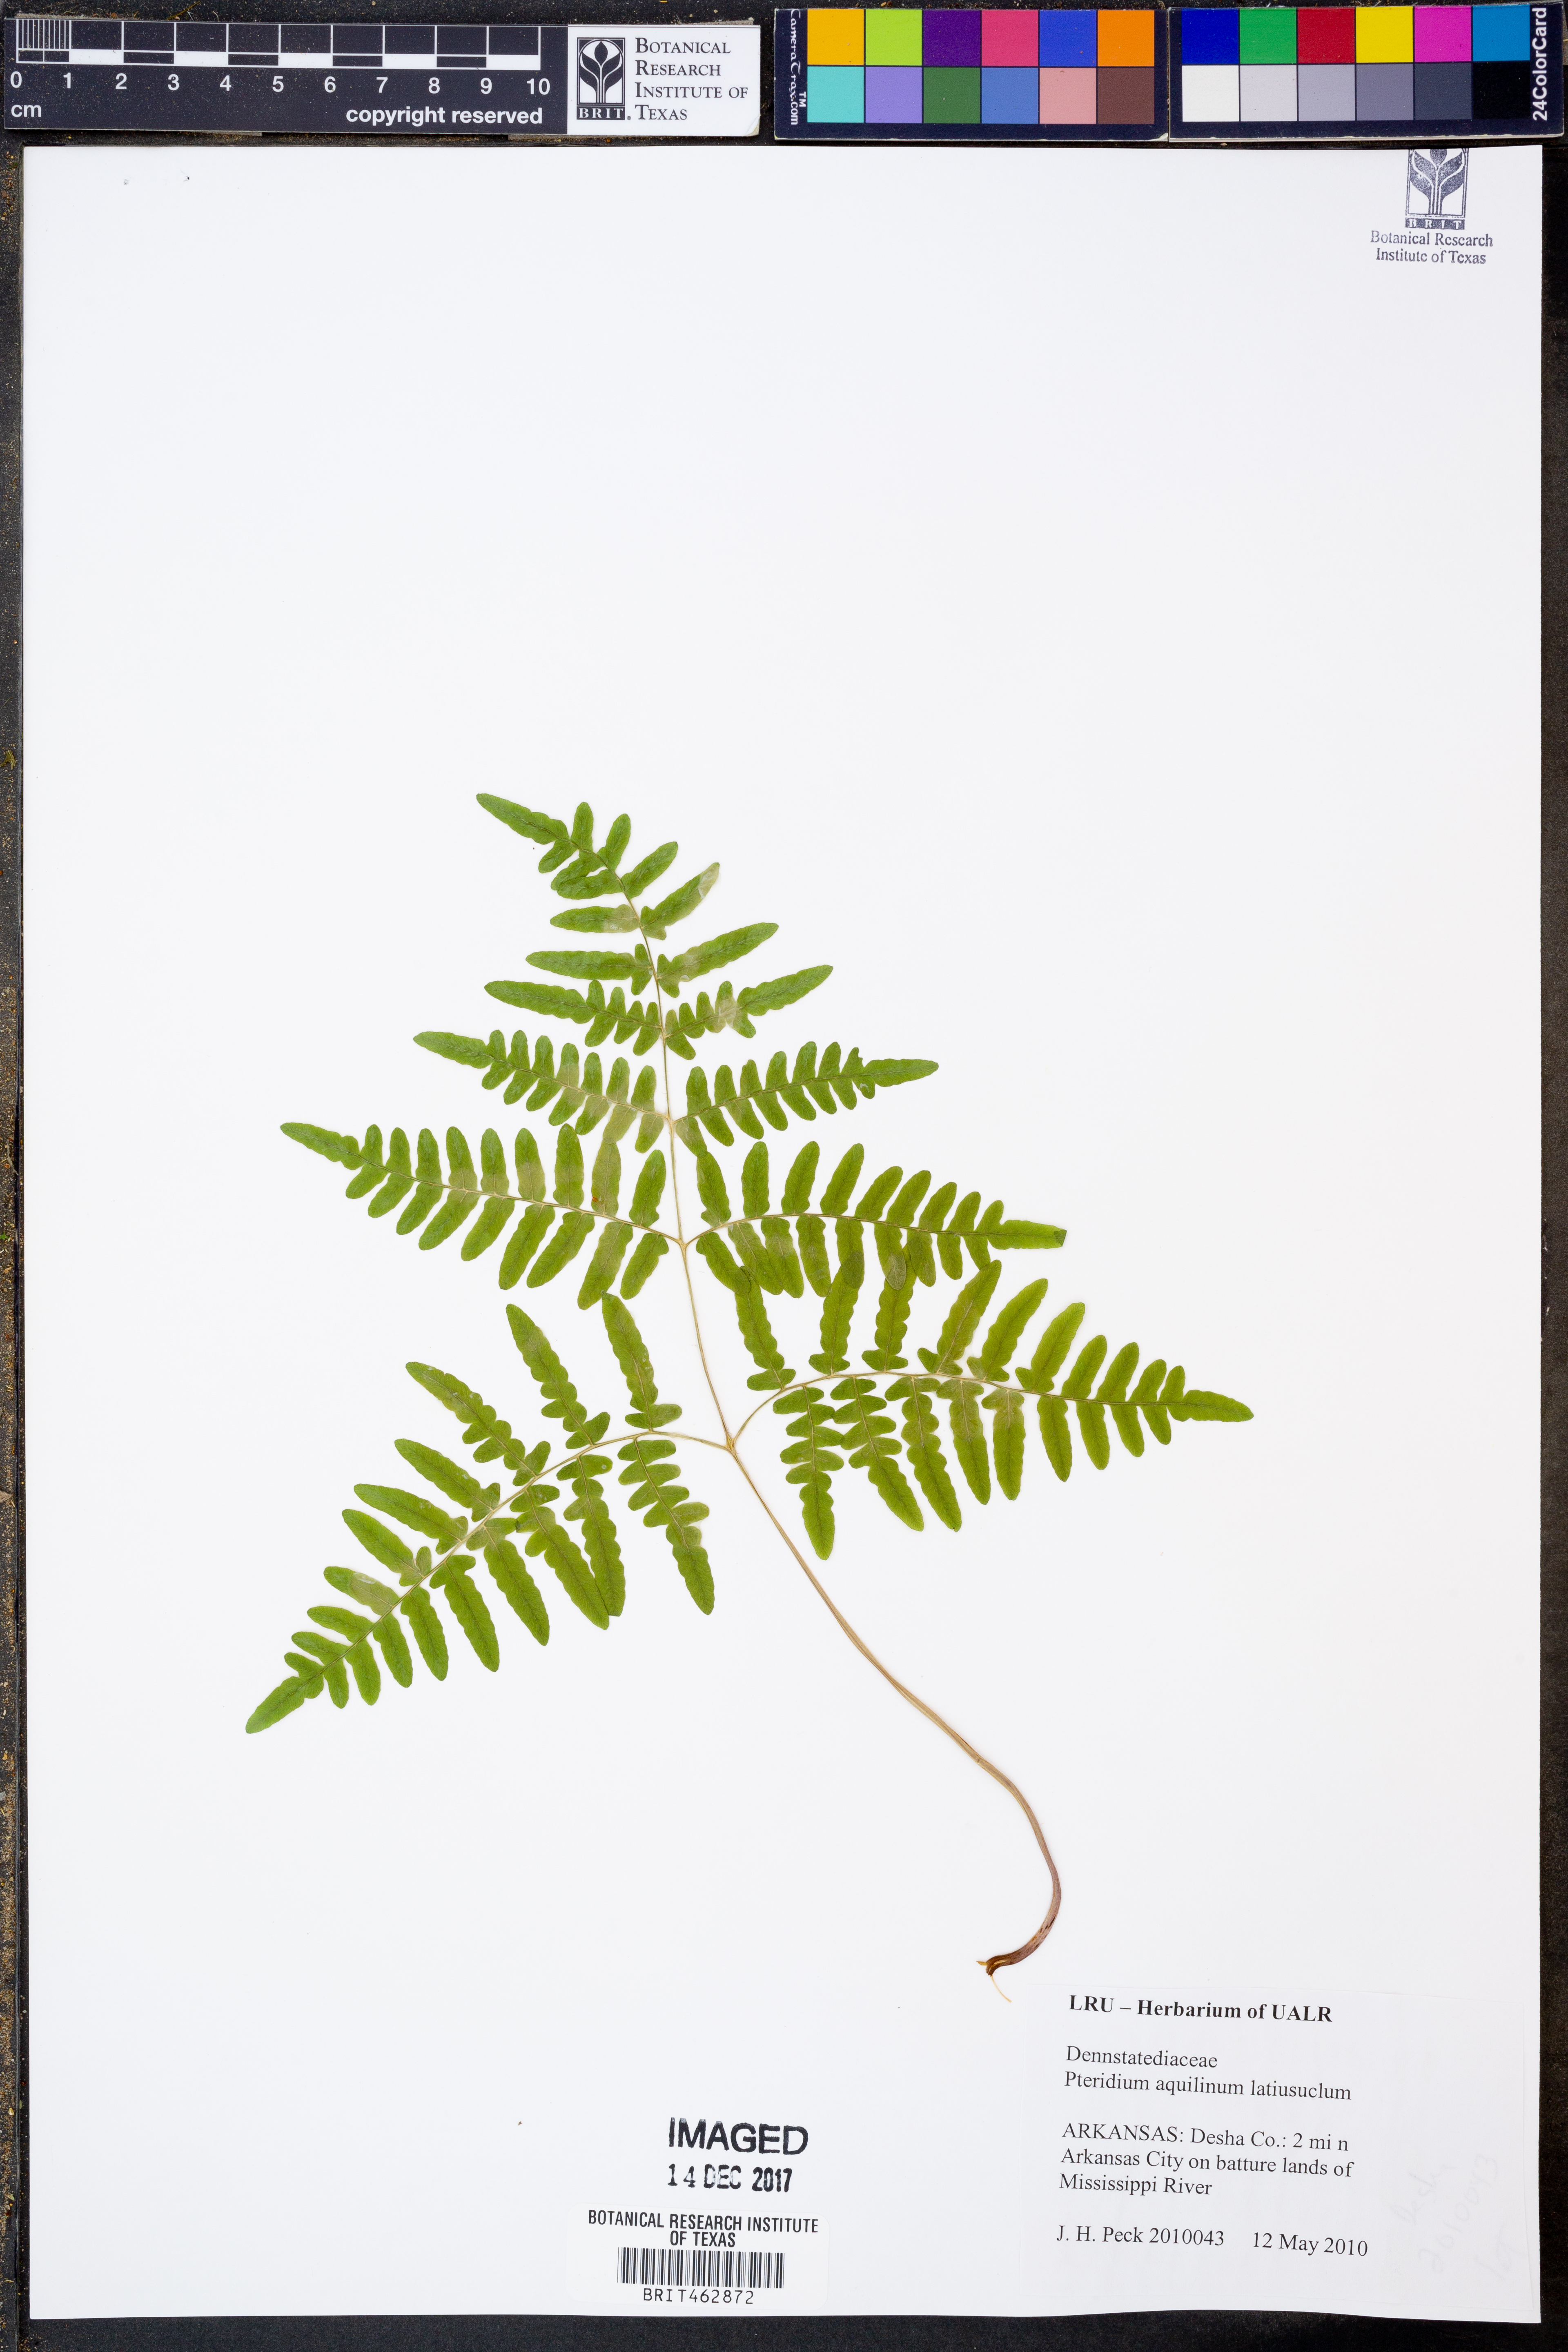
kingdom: Plantae
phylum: Tracheophyta
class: Polypodiopsida
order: Polypodiales
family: Dennstaedtiaceae
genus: Pteridium
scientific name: Pteridium aquilinum
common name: Bracken
